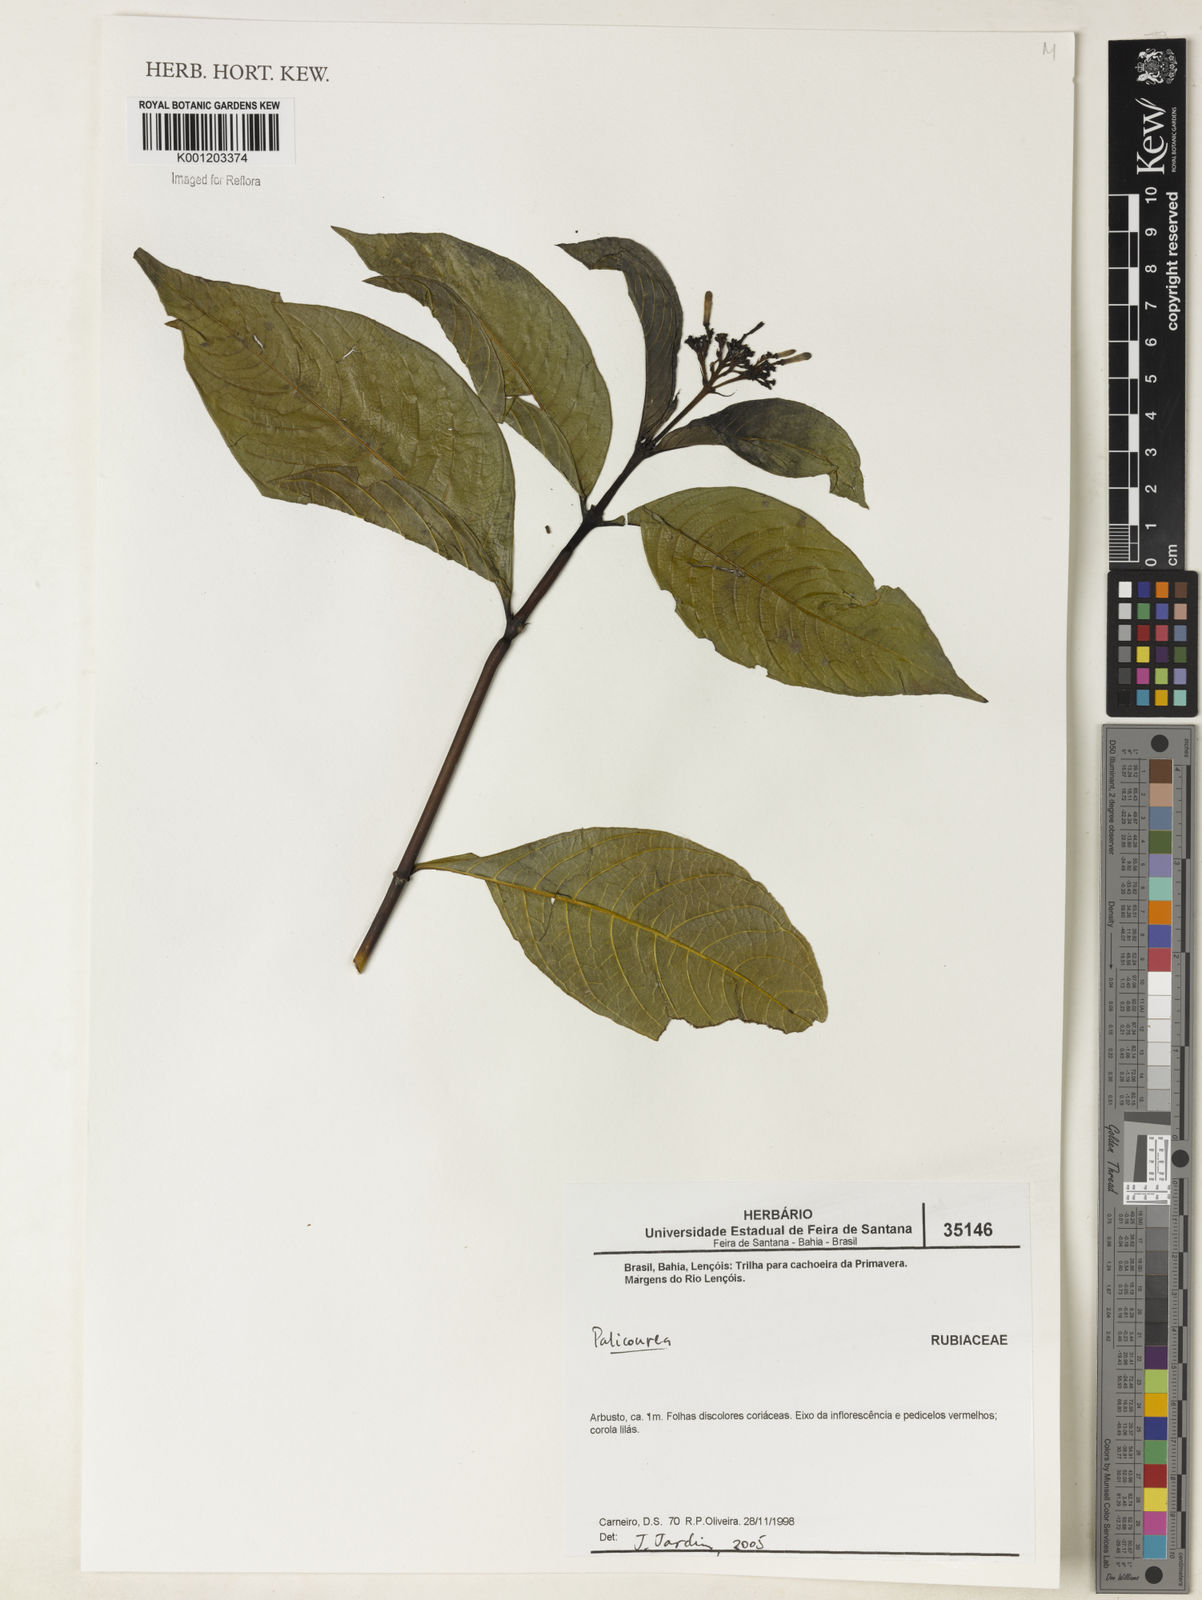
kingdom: Plantae
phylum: Tracheophyta
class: Magnoliopsida
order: Gentianales
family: Rubiaceae
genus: Palicourea
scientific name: Palicourea
